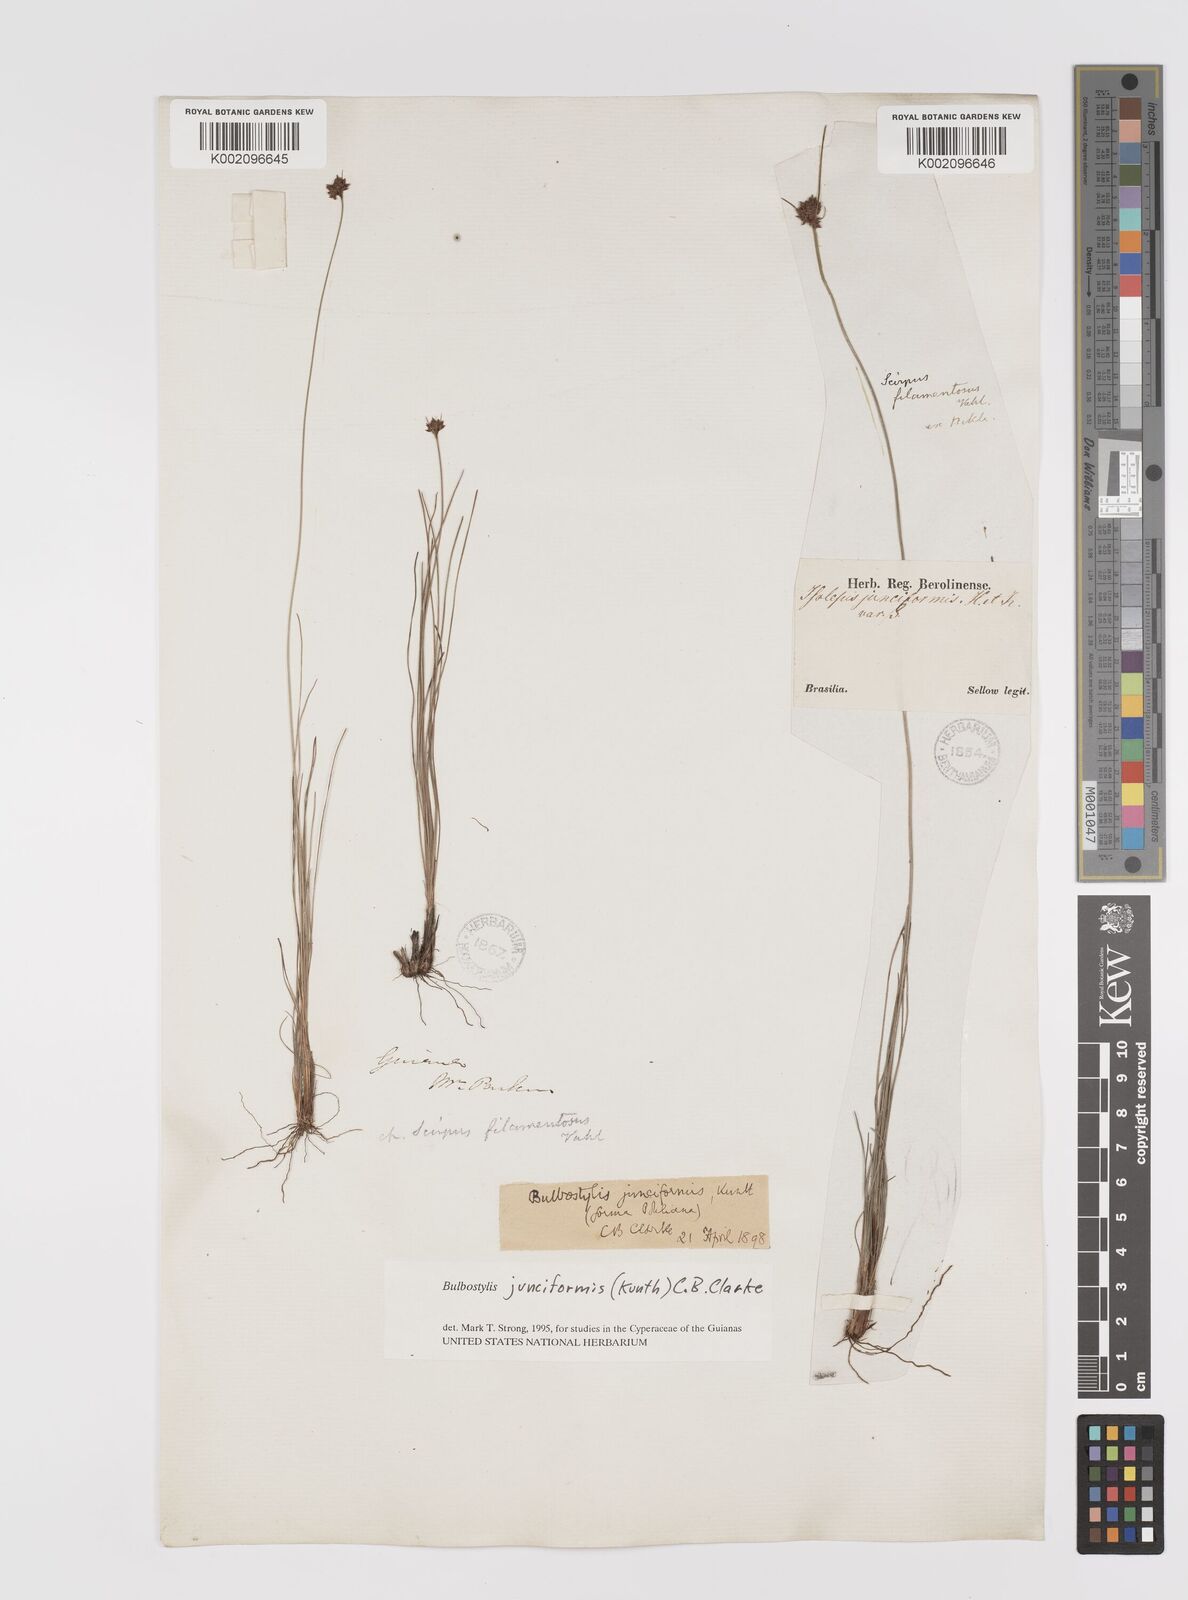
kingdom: Plantae
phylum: Tracheophyta
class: Liliopsida
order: Poales
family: Cyperaceae
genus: Bulbostylis
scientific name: Bulbostylis junciformis
